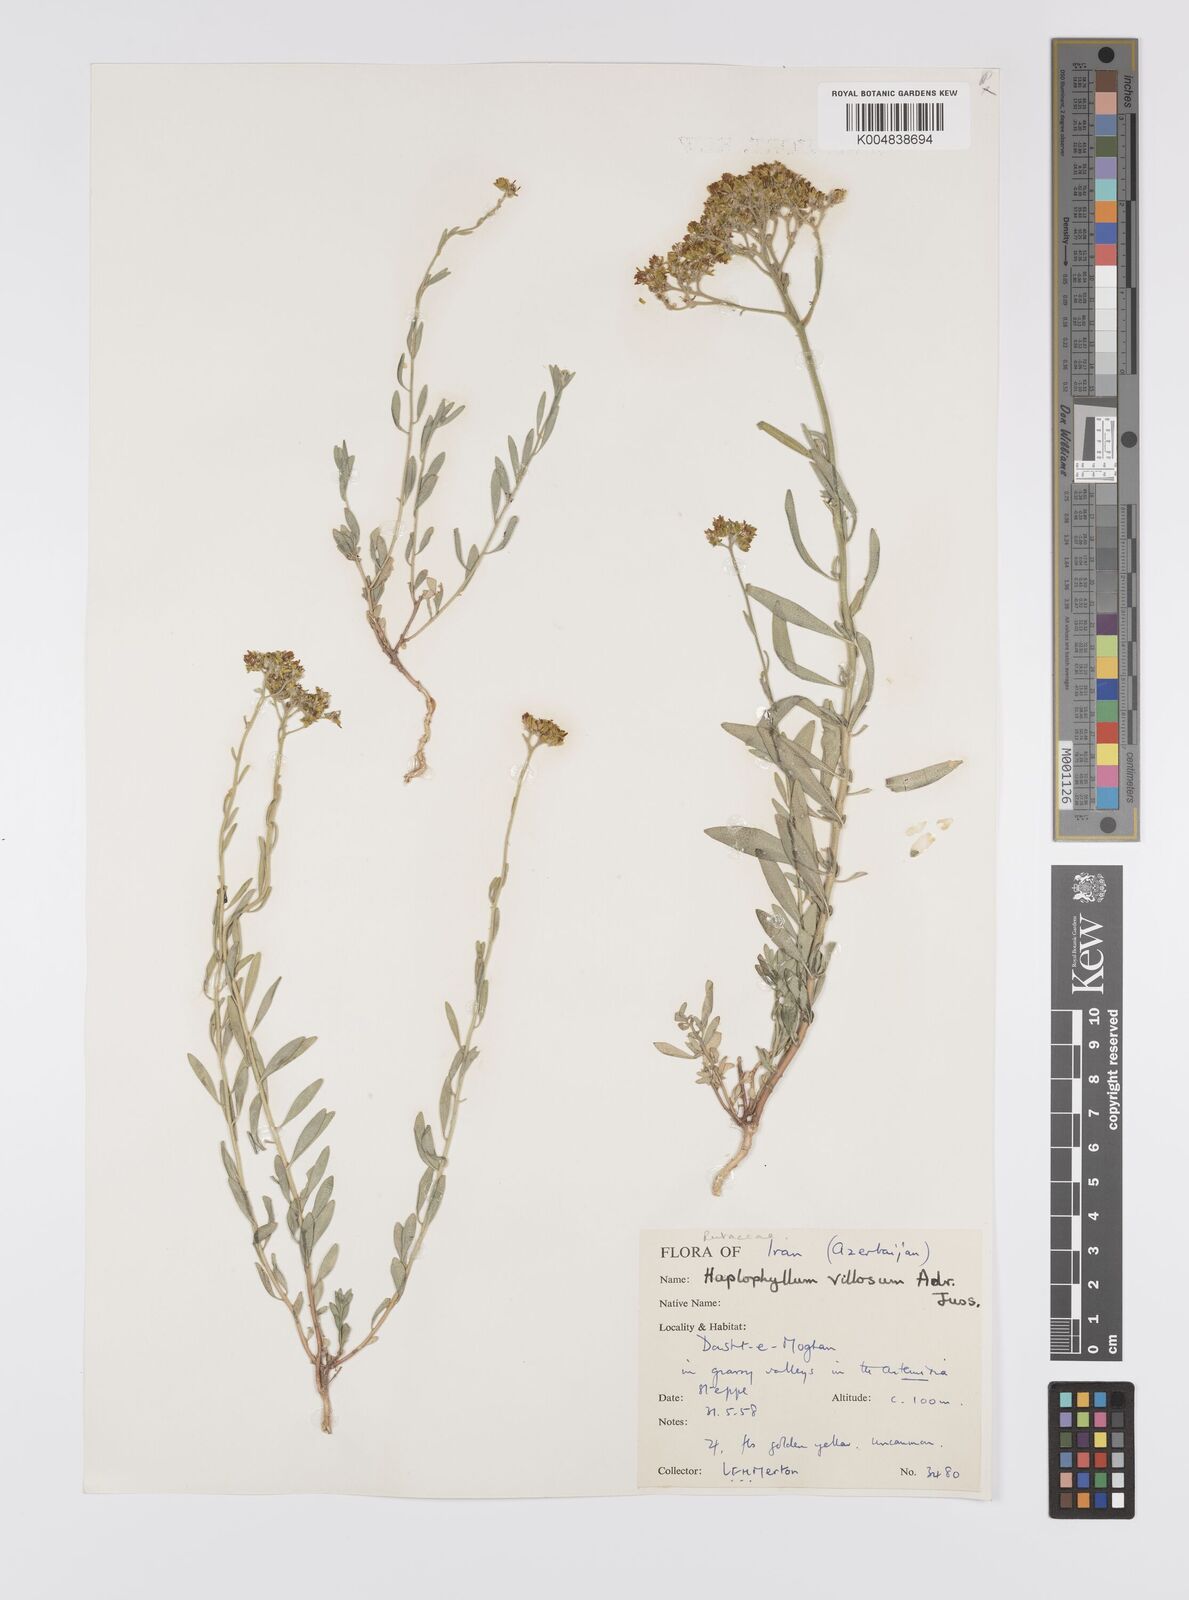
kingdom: Plantae
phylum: Tracheophyta
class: Magnoliopsida
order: Sapindales
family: Rutaceae
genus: Haplophyllum
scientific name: Haplophyllum villosum
